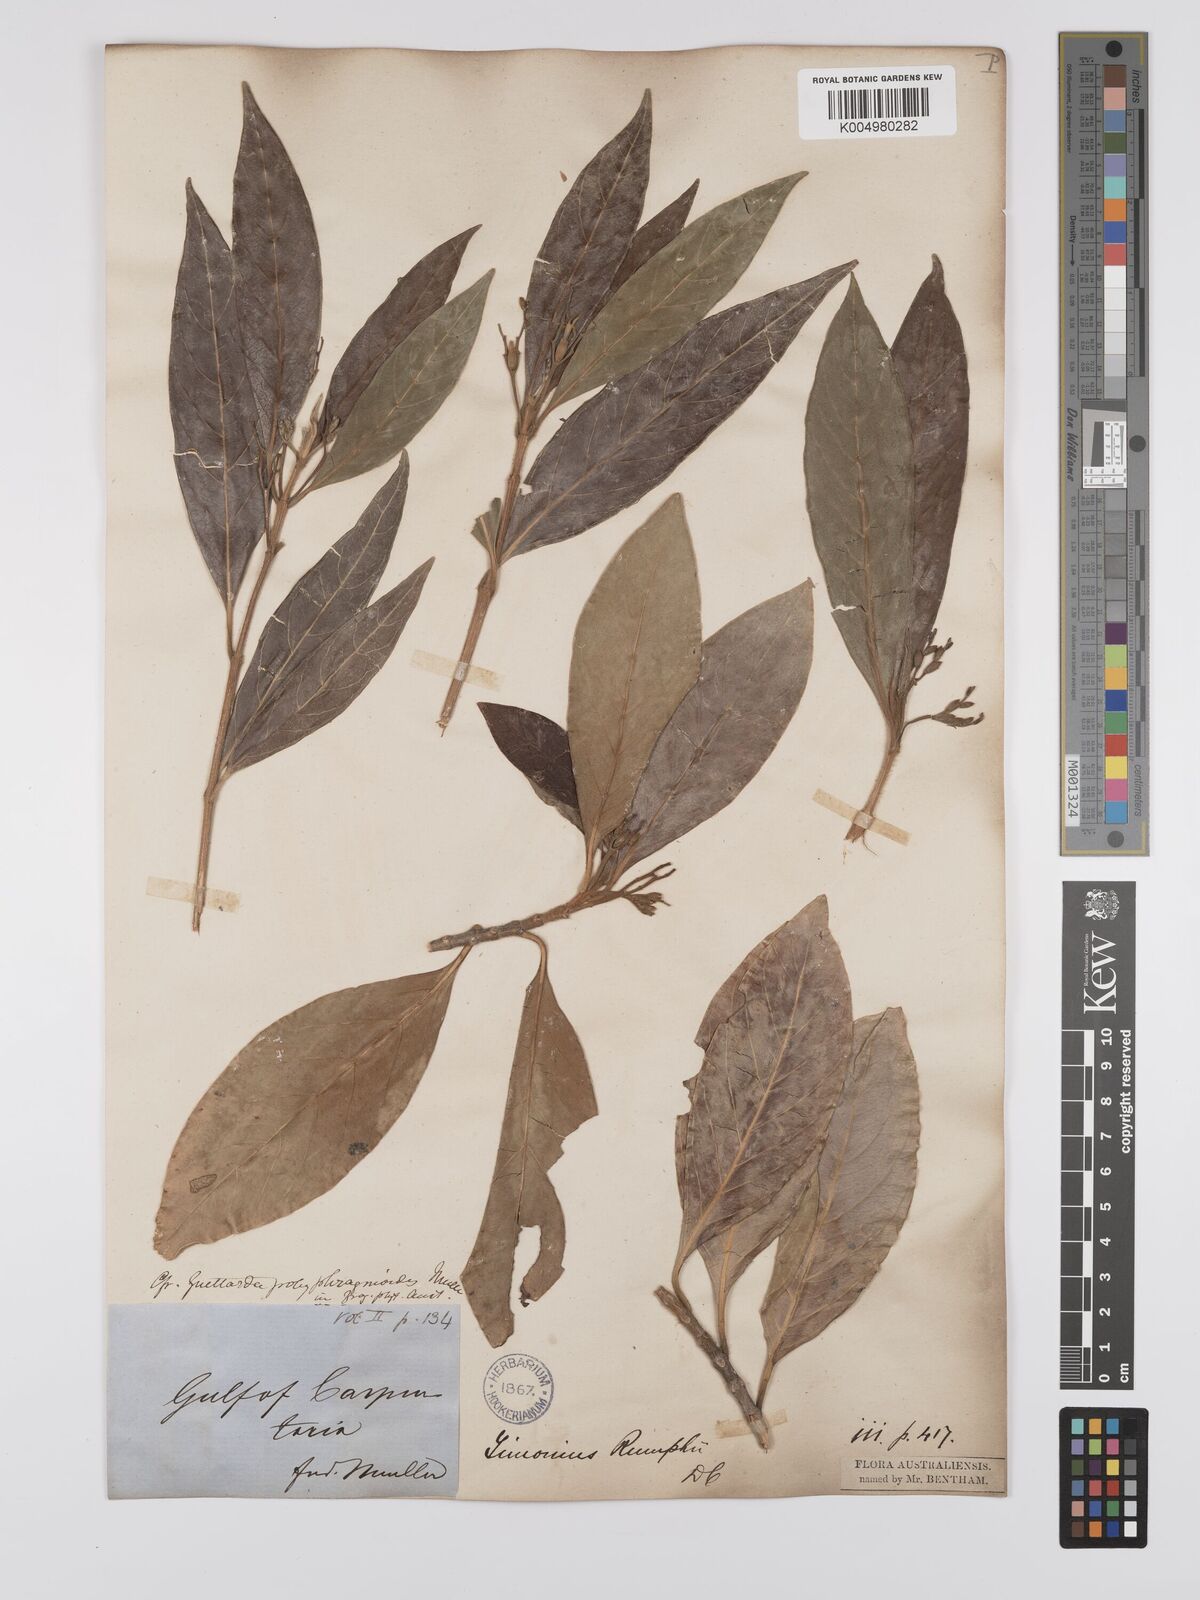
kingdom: Plantae
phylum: Tracheophyta
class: Magnoliopsida
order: Gentianales
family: Rubiaceae
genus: Timonius
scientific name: Timonius timon
